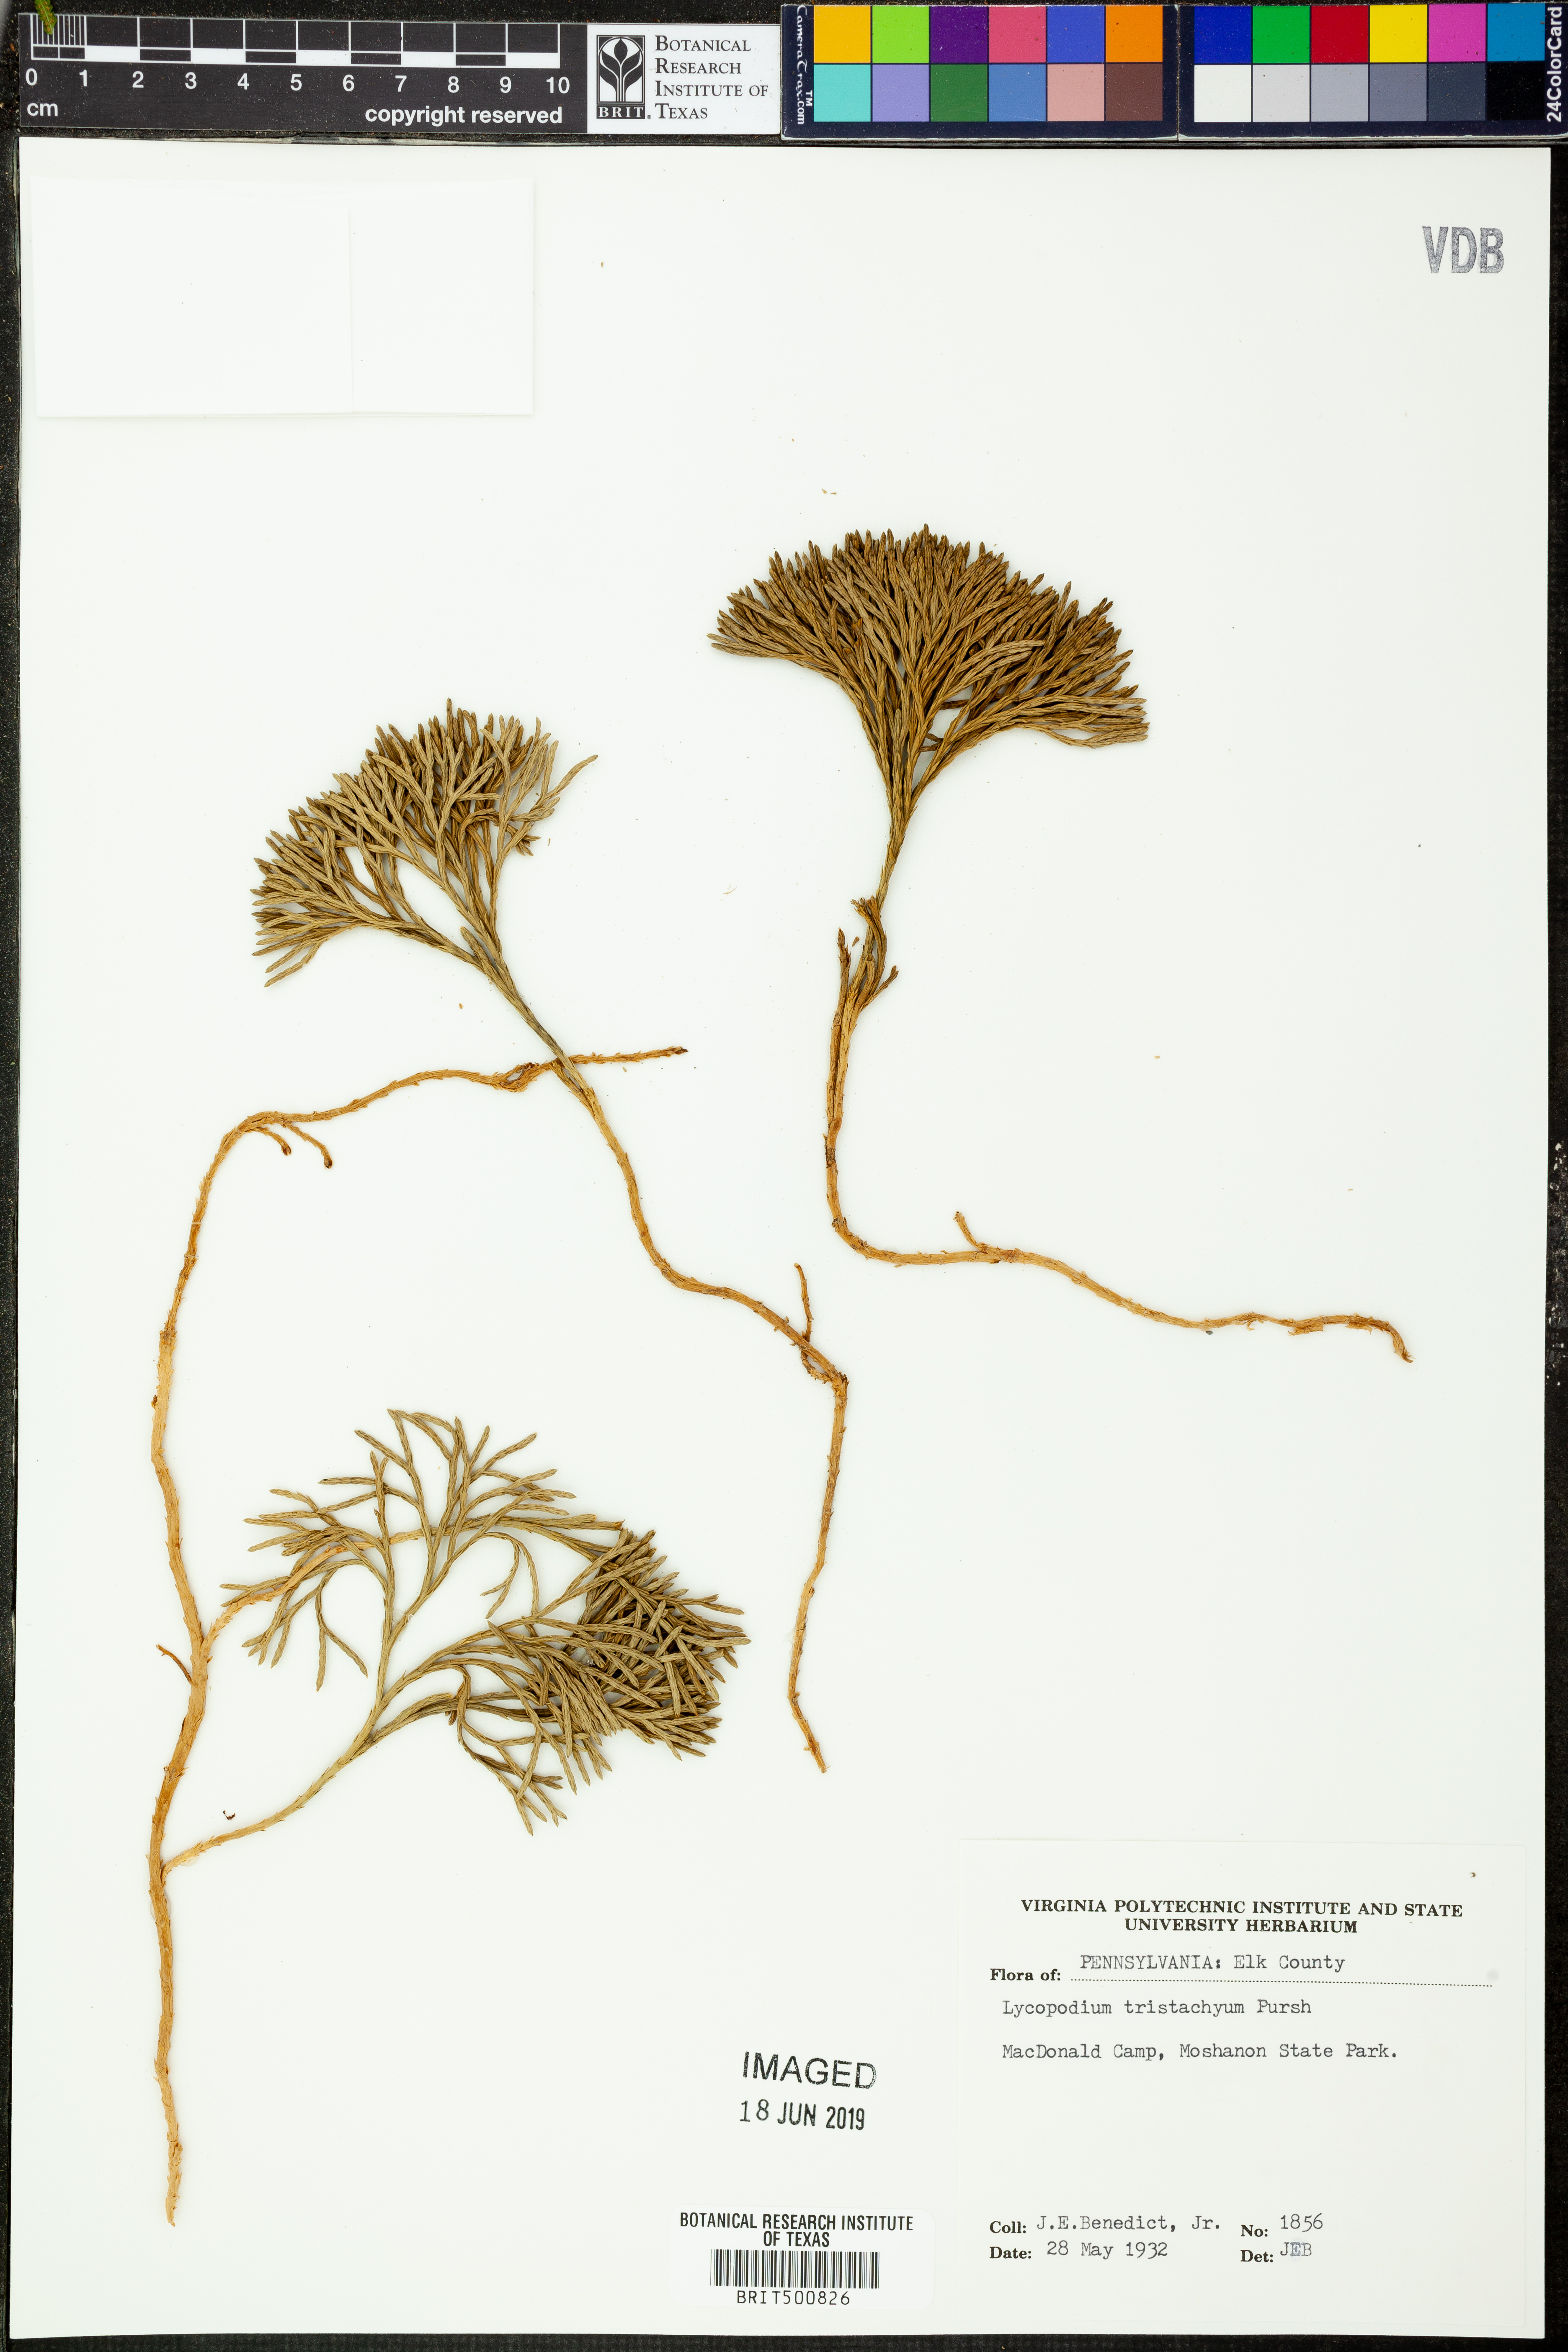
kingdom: Plantae
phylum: Tracheophyta
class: Lycopodiopsida
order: Lycopodiales
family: Lycopodiaceae
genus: Diphasiastrum
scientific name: Diphasiastrum tristachyum
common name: Blue ground-cedar
